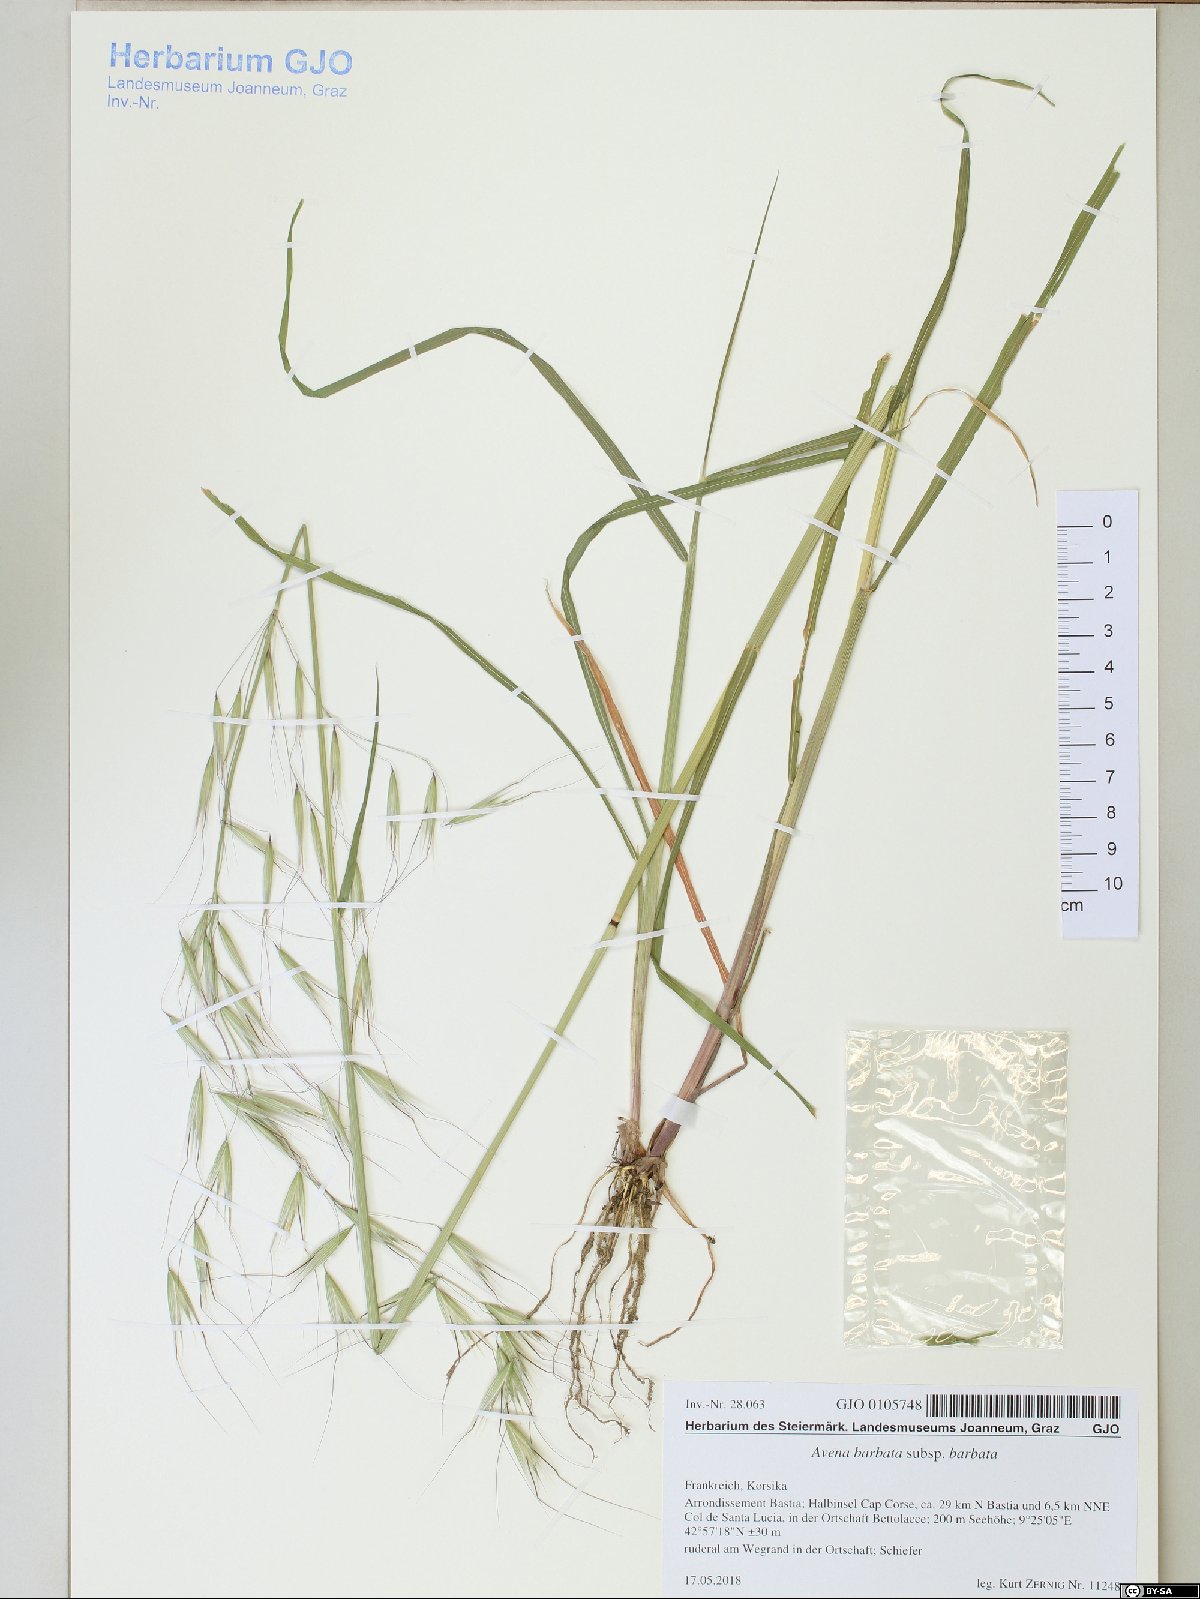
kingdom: Plantae
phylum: Tracheophyta
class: Liliopsida
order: Poales
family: Poaceae
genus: Avena
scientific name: Avena barbata
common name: Slender oat
